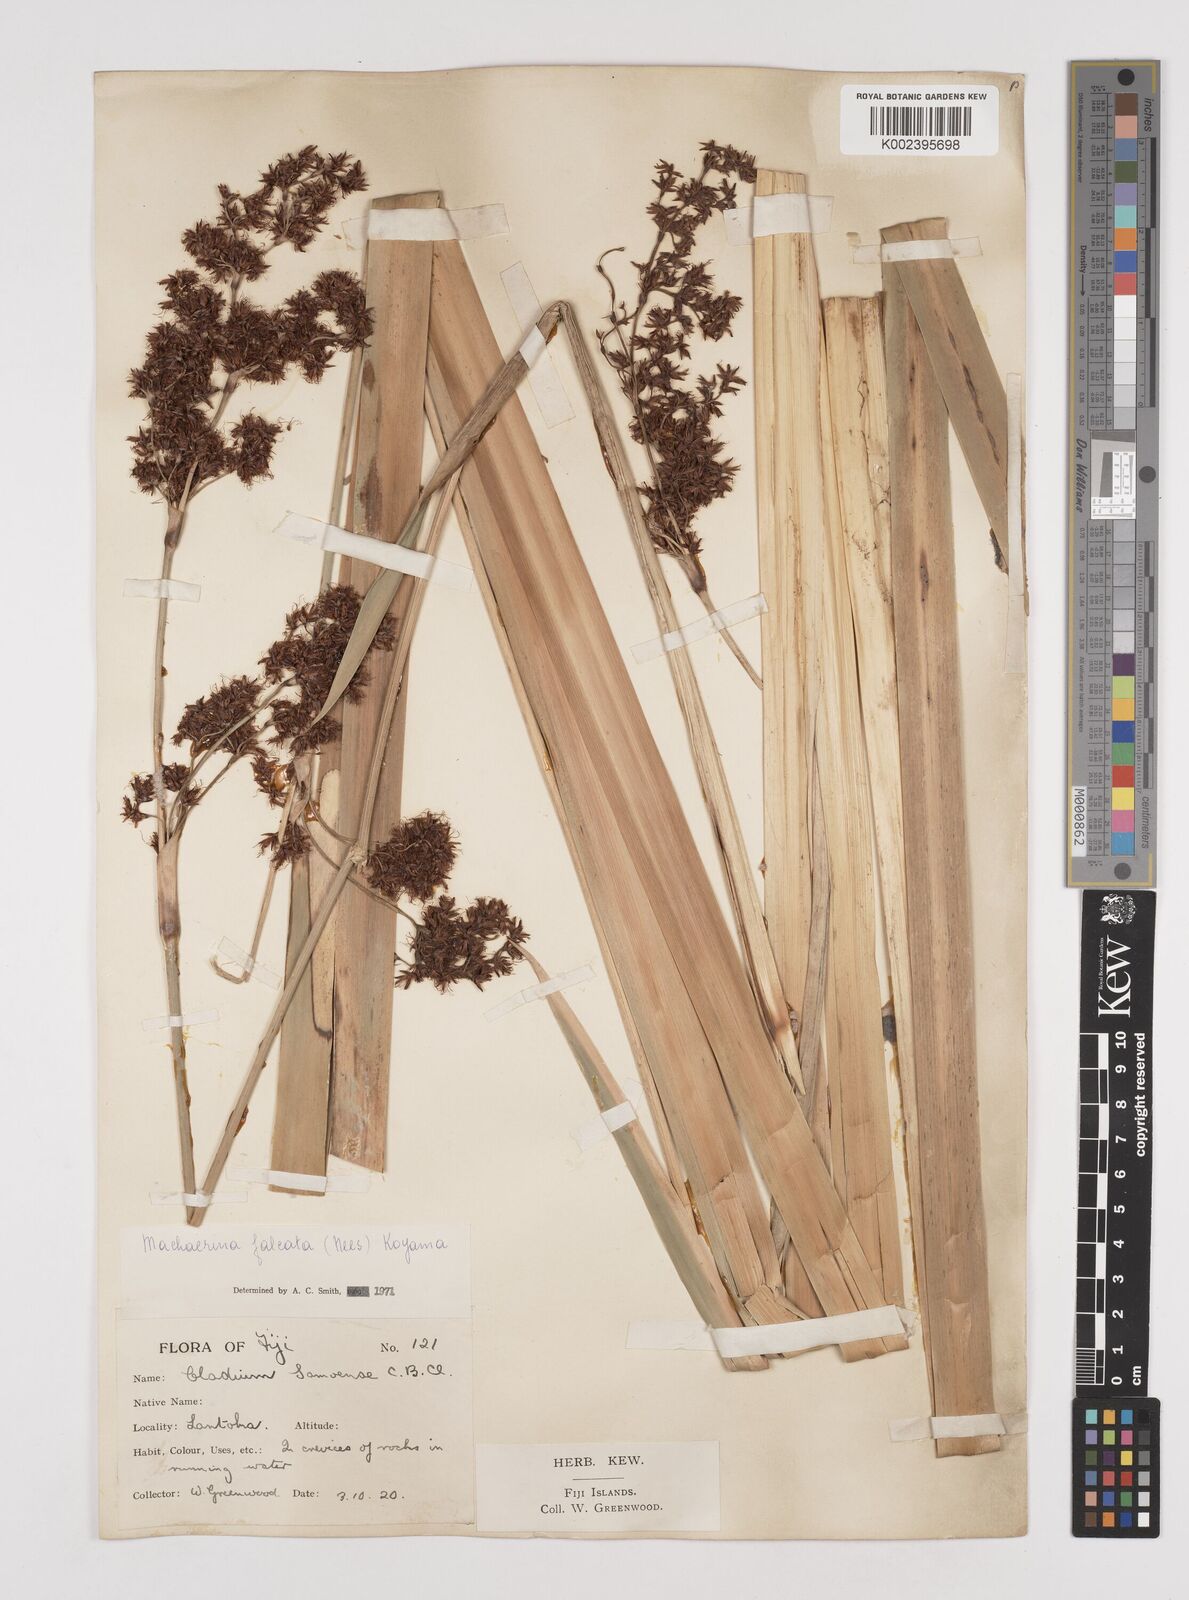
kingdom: Plantae
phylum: Tracheophyta
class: Liliopsida
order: Poales
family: Cyperaceae
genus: Machaerina
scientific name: Machaerina falcata
